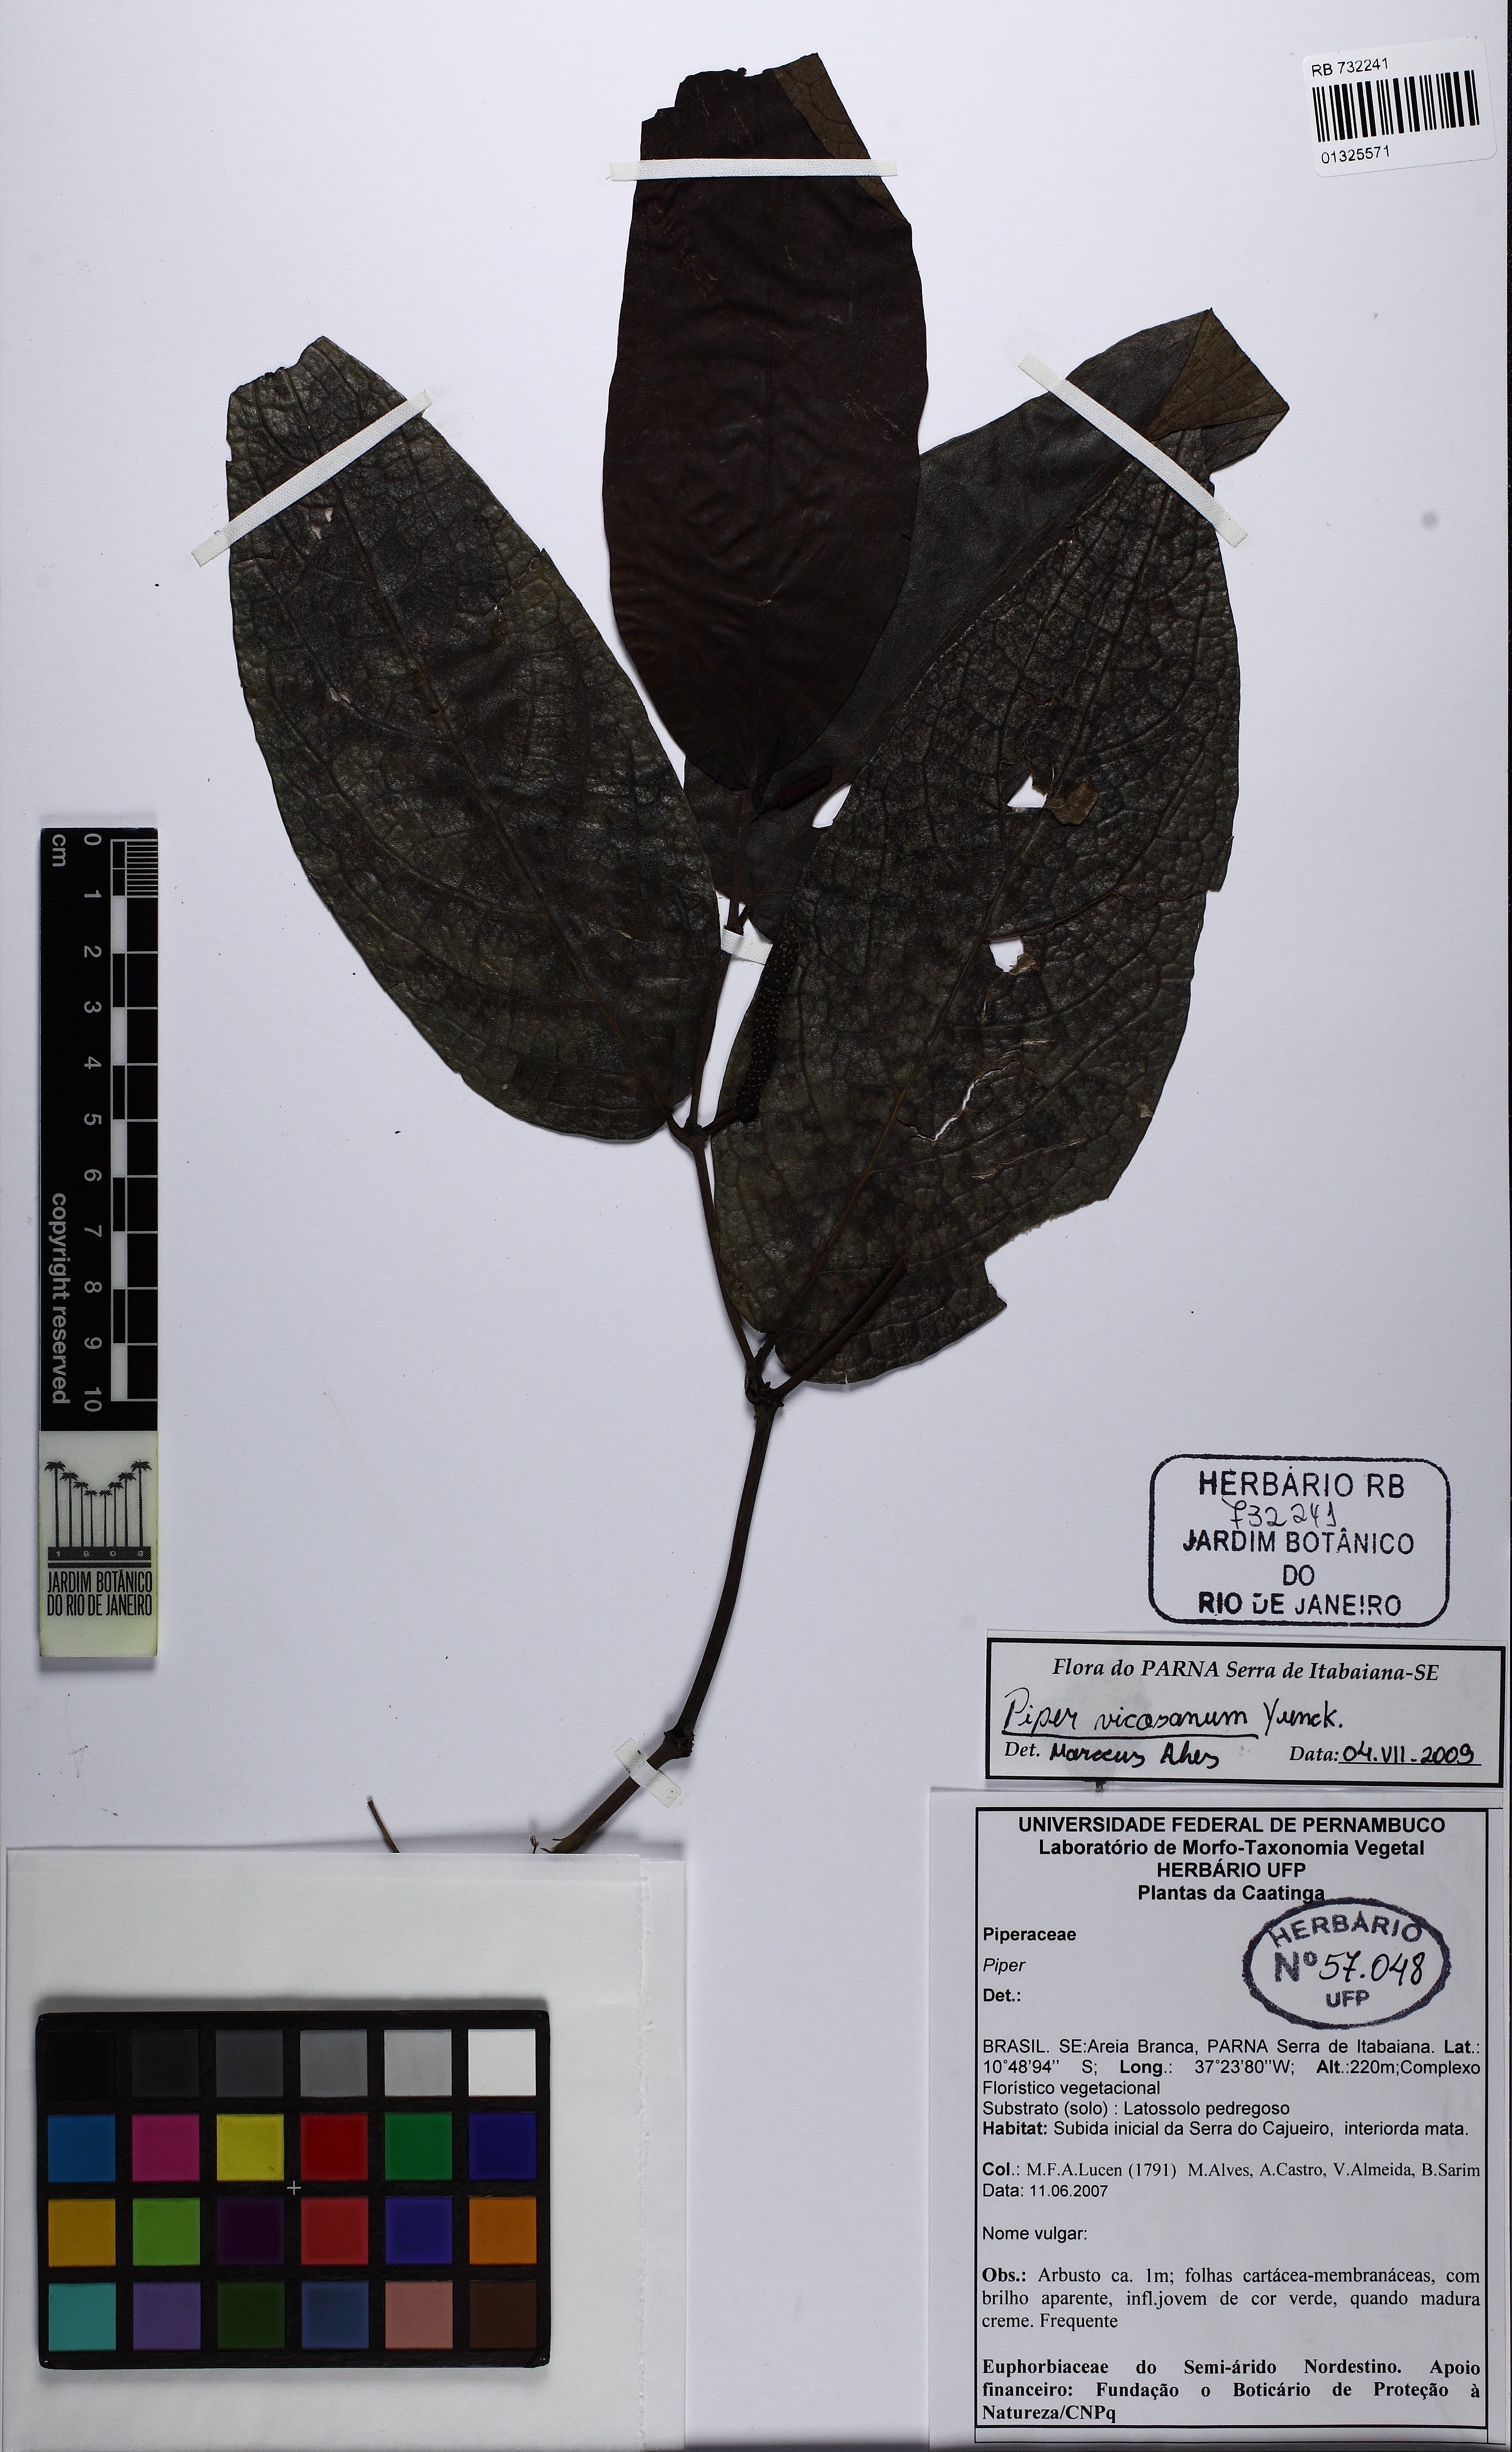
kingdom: Plantae
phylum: Tracheophyta
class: Magnoliopsida
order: Piperales
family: Piperaceae
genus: Piper
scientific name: Piper vicosanum
